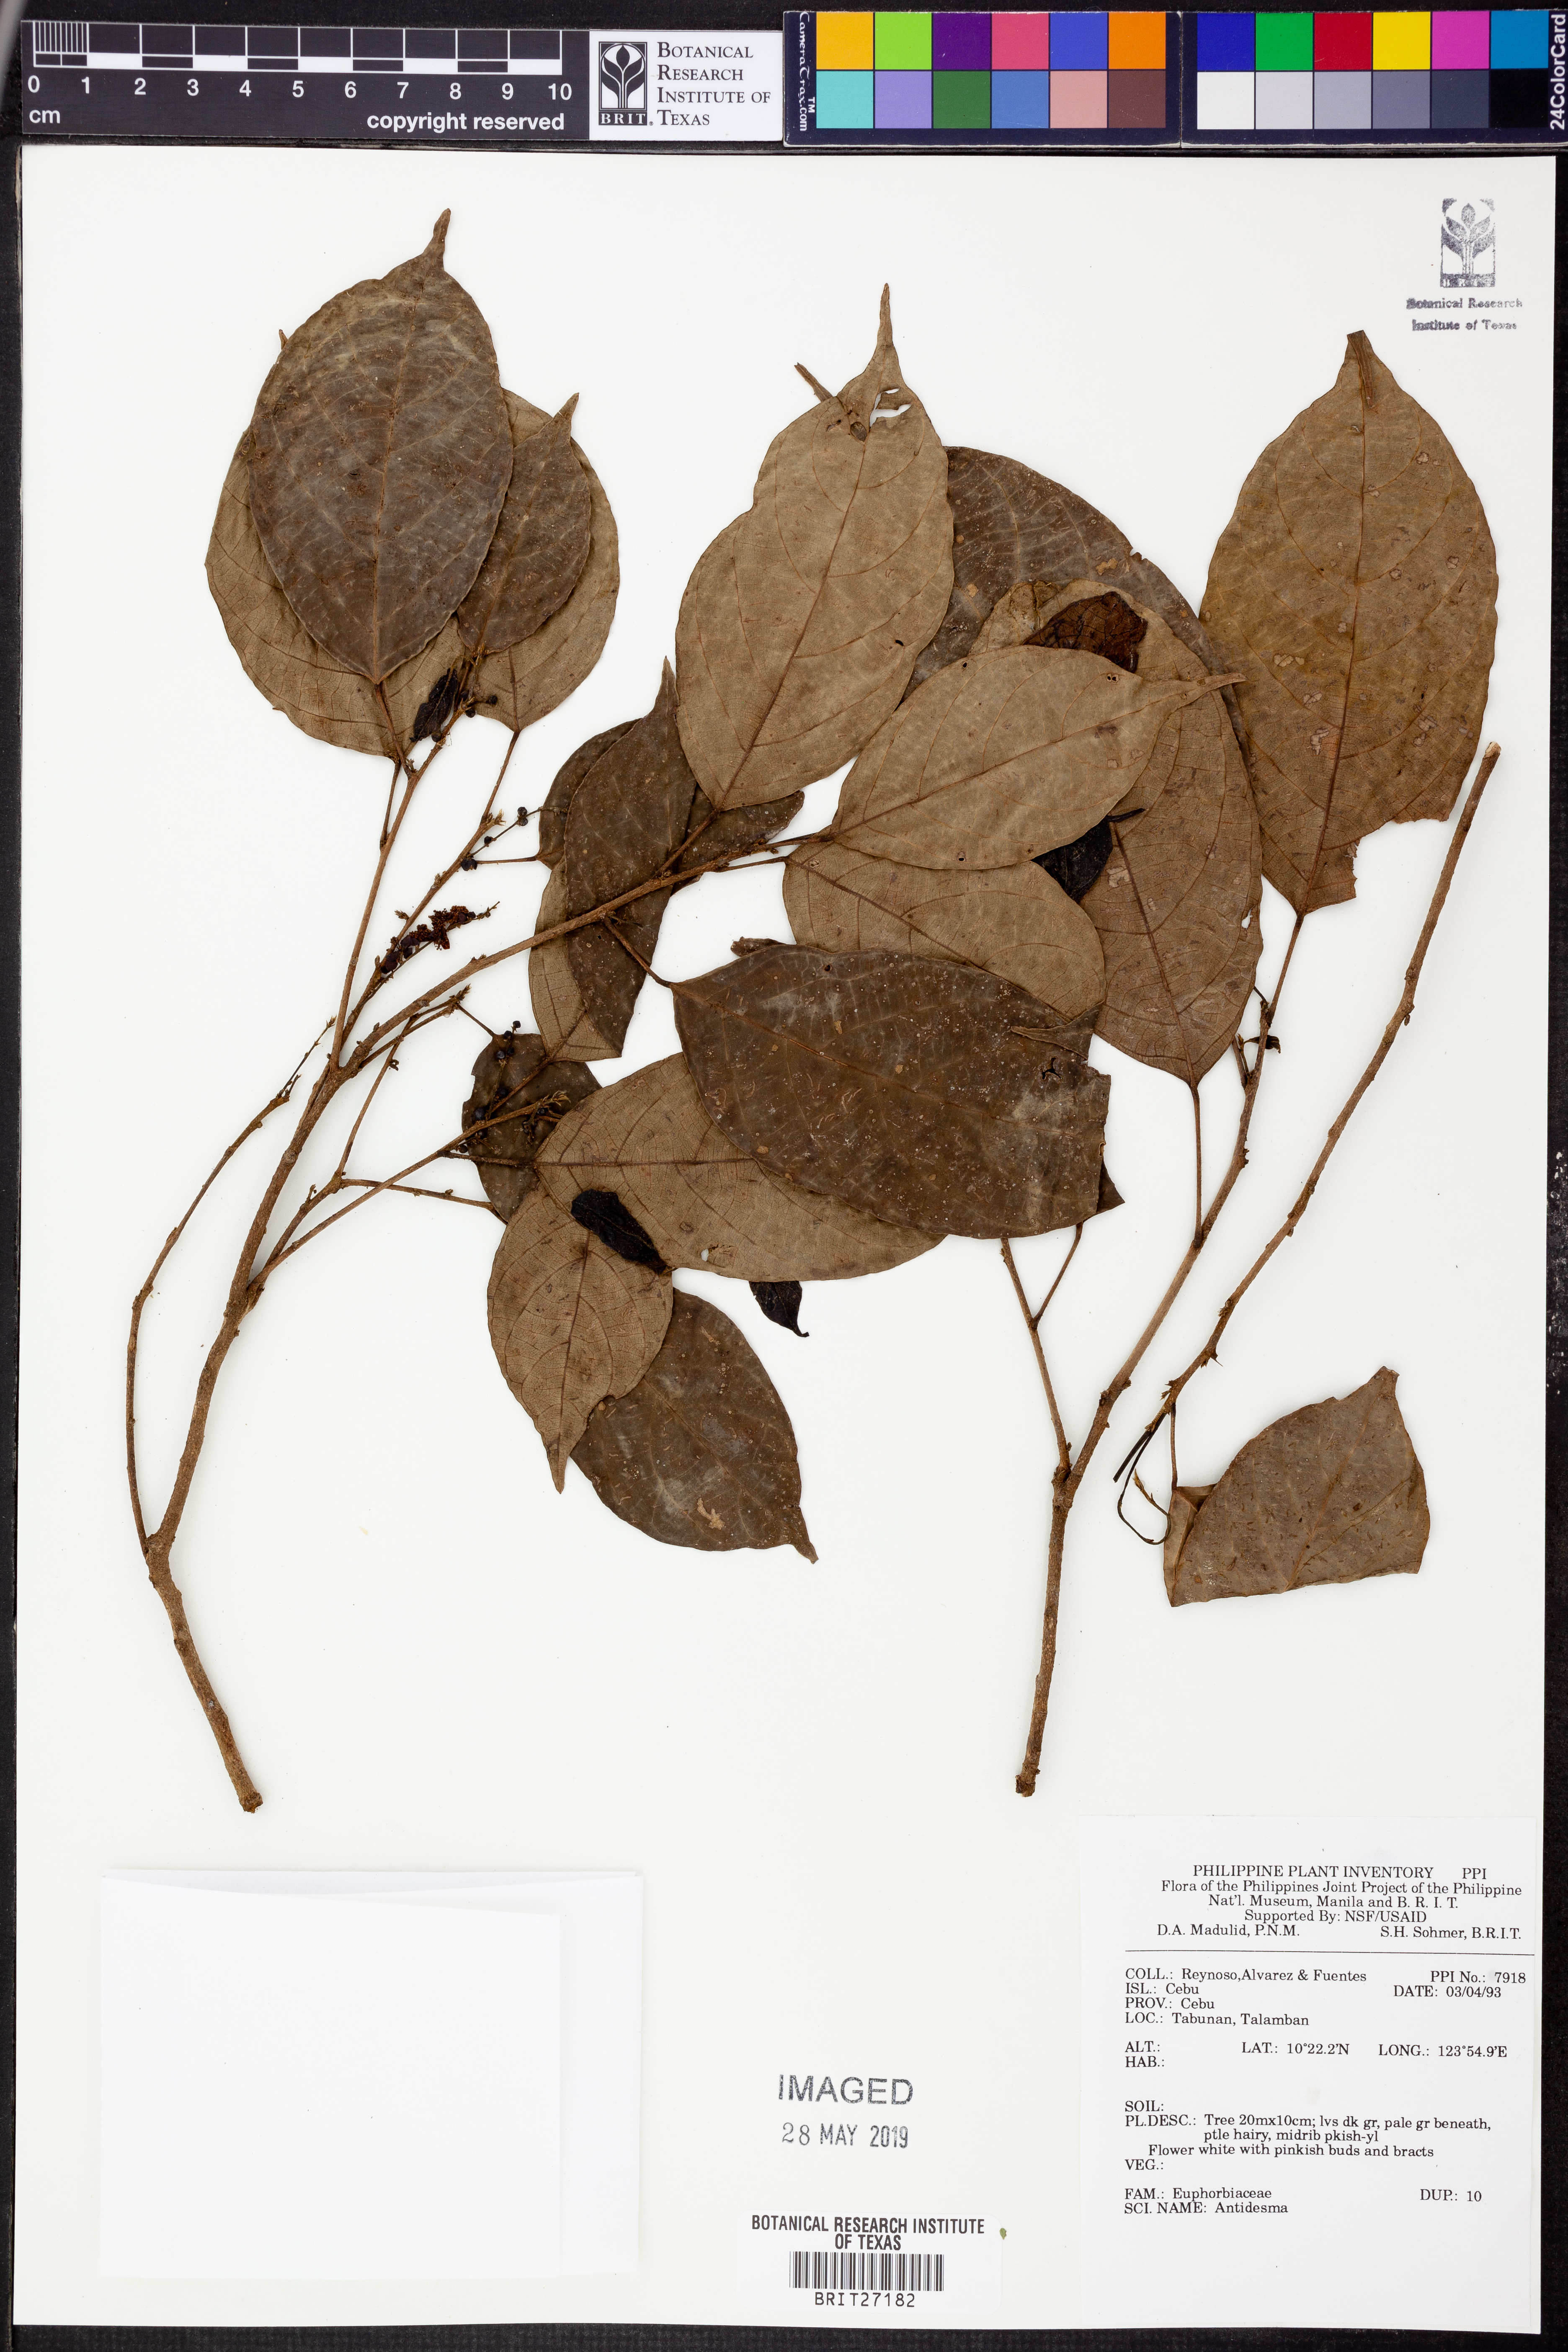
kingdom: Plantae
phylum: Tracheophyta
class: Magnoliopsida
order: Malpighiales
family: Phyllanthaceae
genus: Antidesma
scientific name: Antidesma
